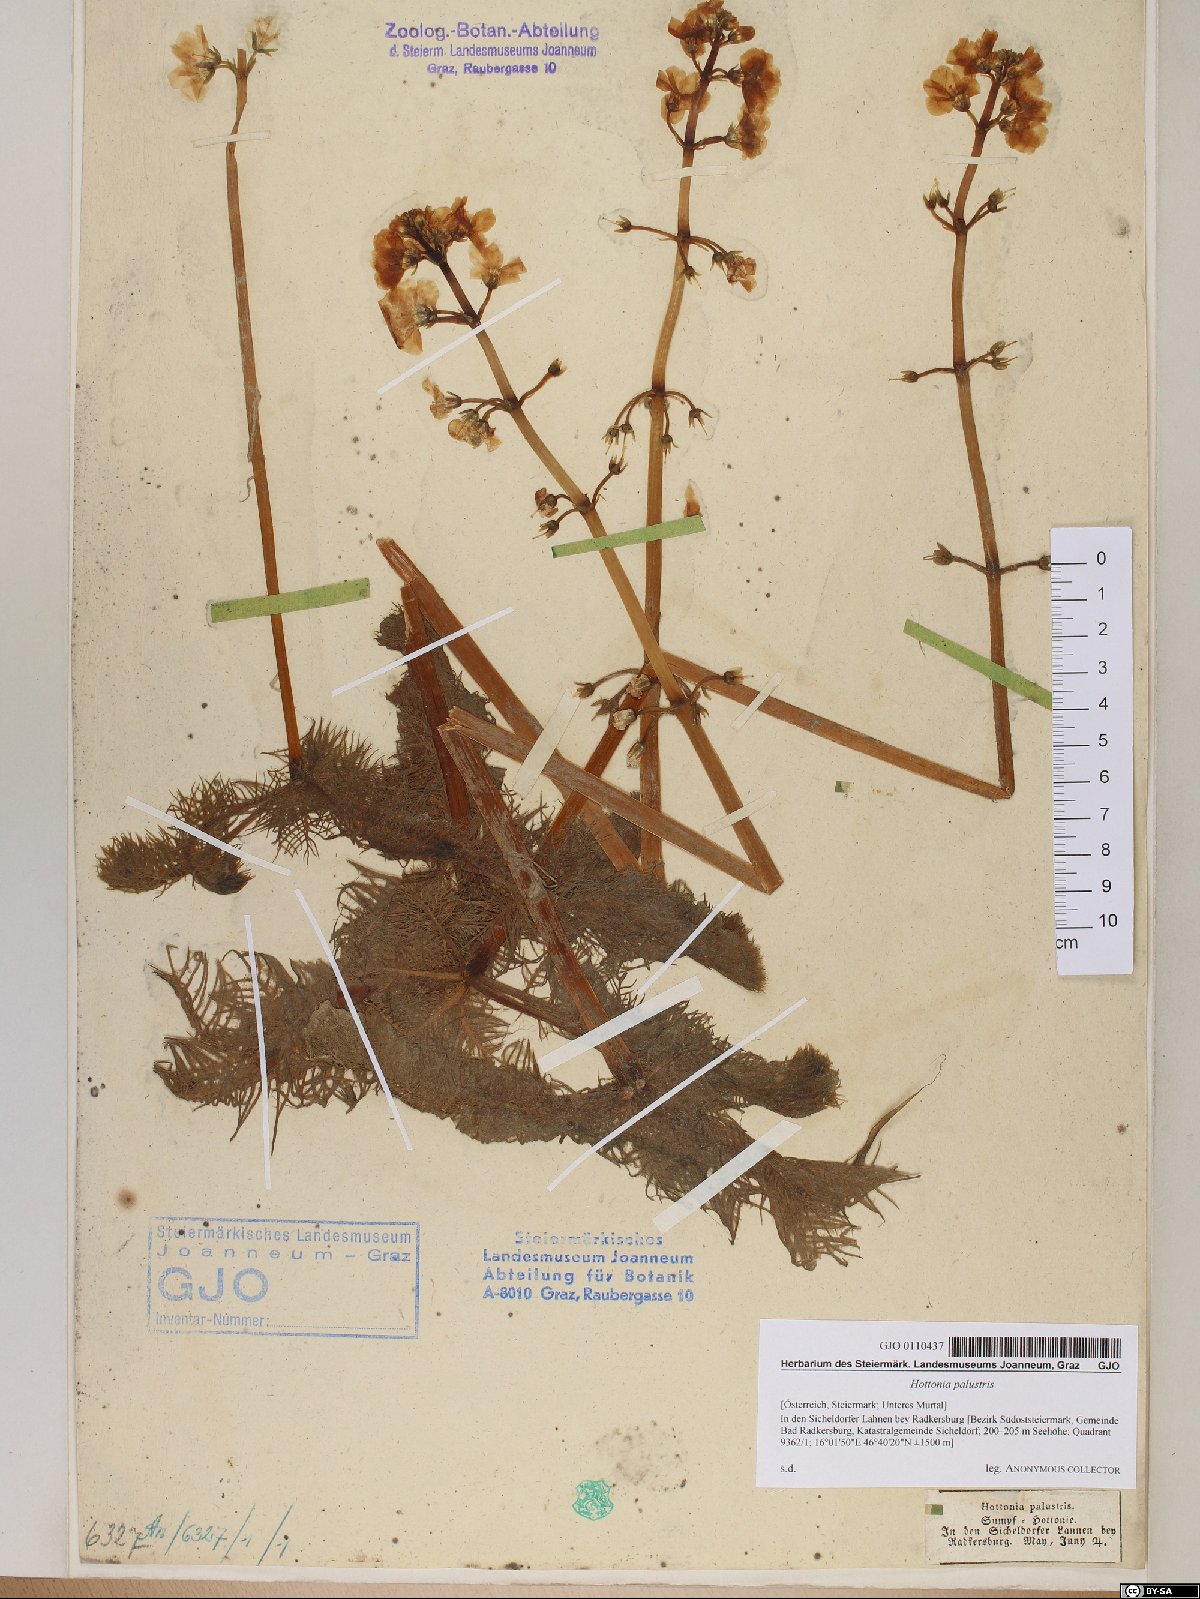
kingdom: Plantae
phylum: Tracheophyta
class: Magnoliopsida
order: Ericales
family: Primulaceae
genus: Hottonia
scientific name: Hottonia palustris
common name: Water-violet
